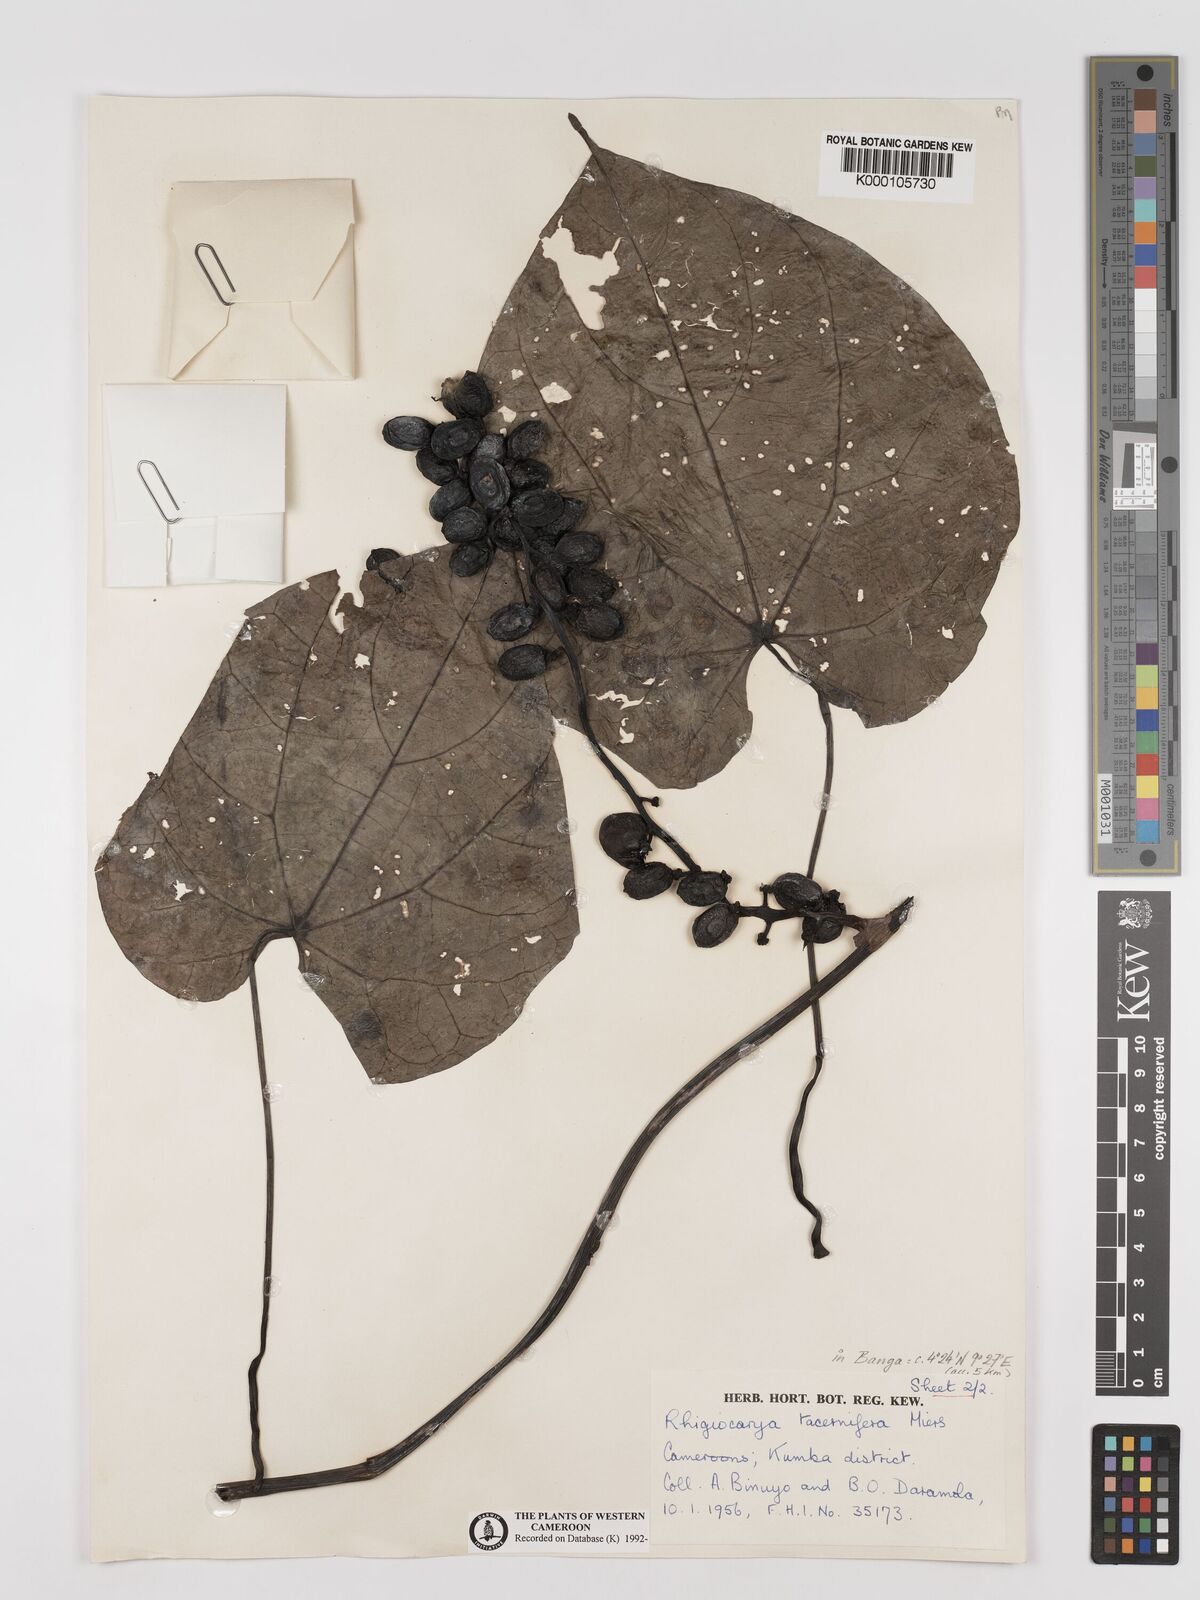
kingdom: Plantae
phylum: Tracheophyta
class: Magnoliopsida
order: Ranunculales
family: Menispermaceae
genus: Rhigiocarya
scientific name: Rhigiocarya racemifera
